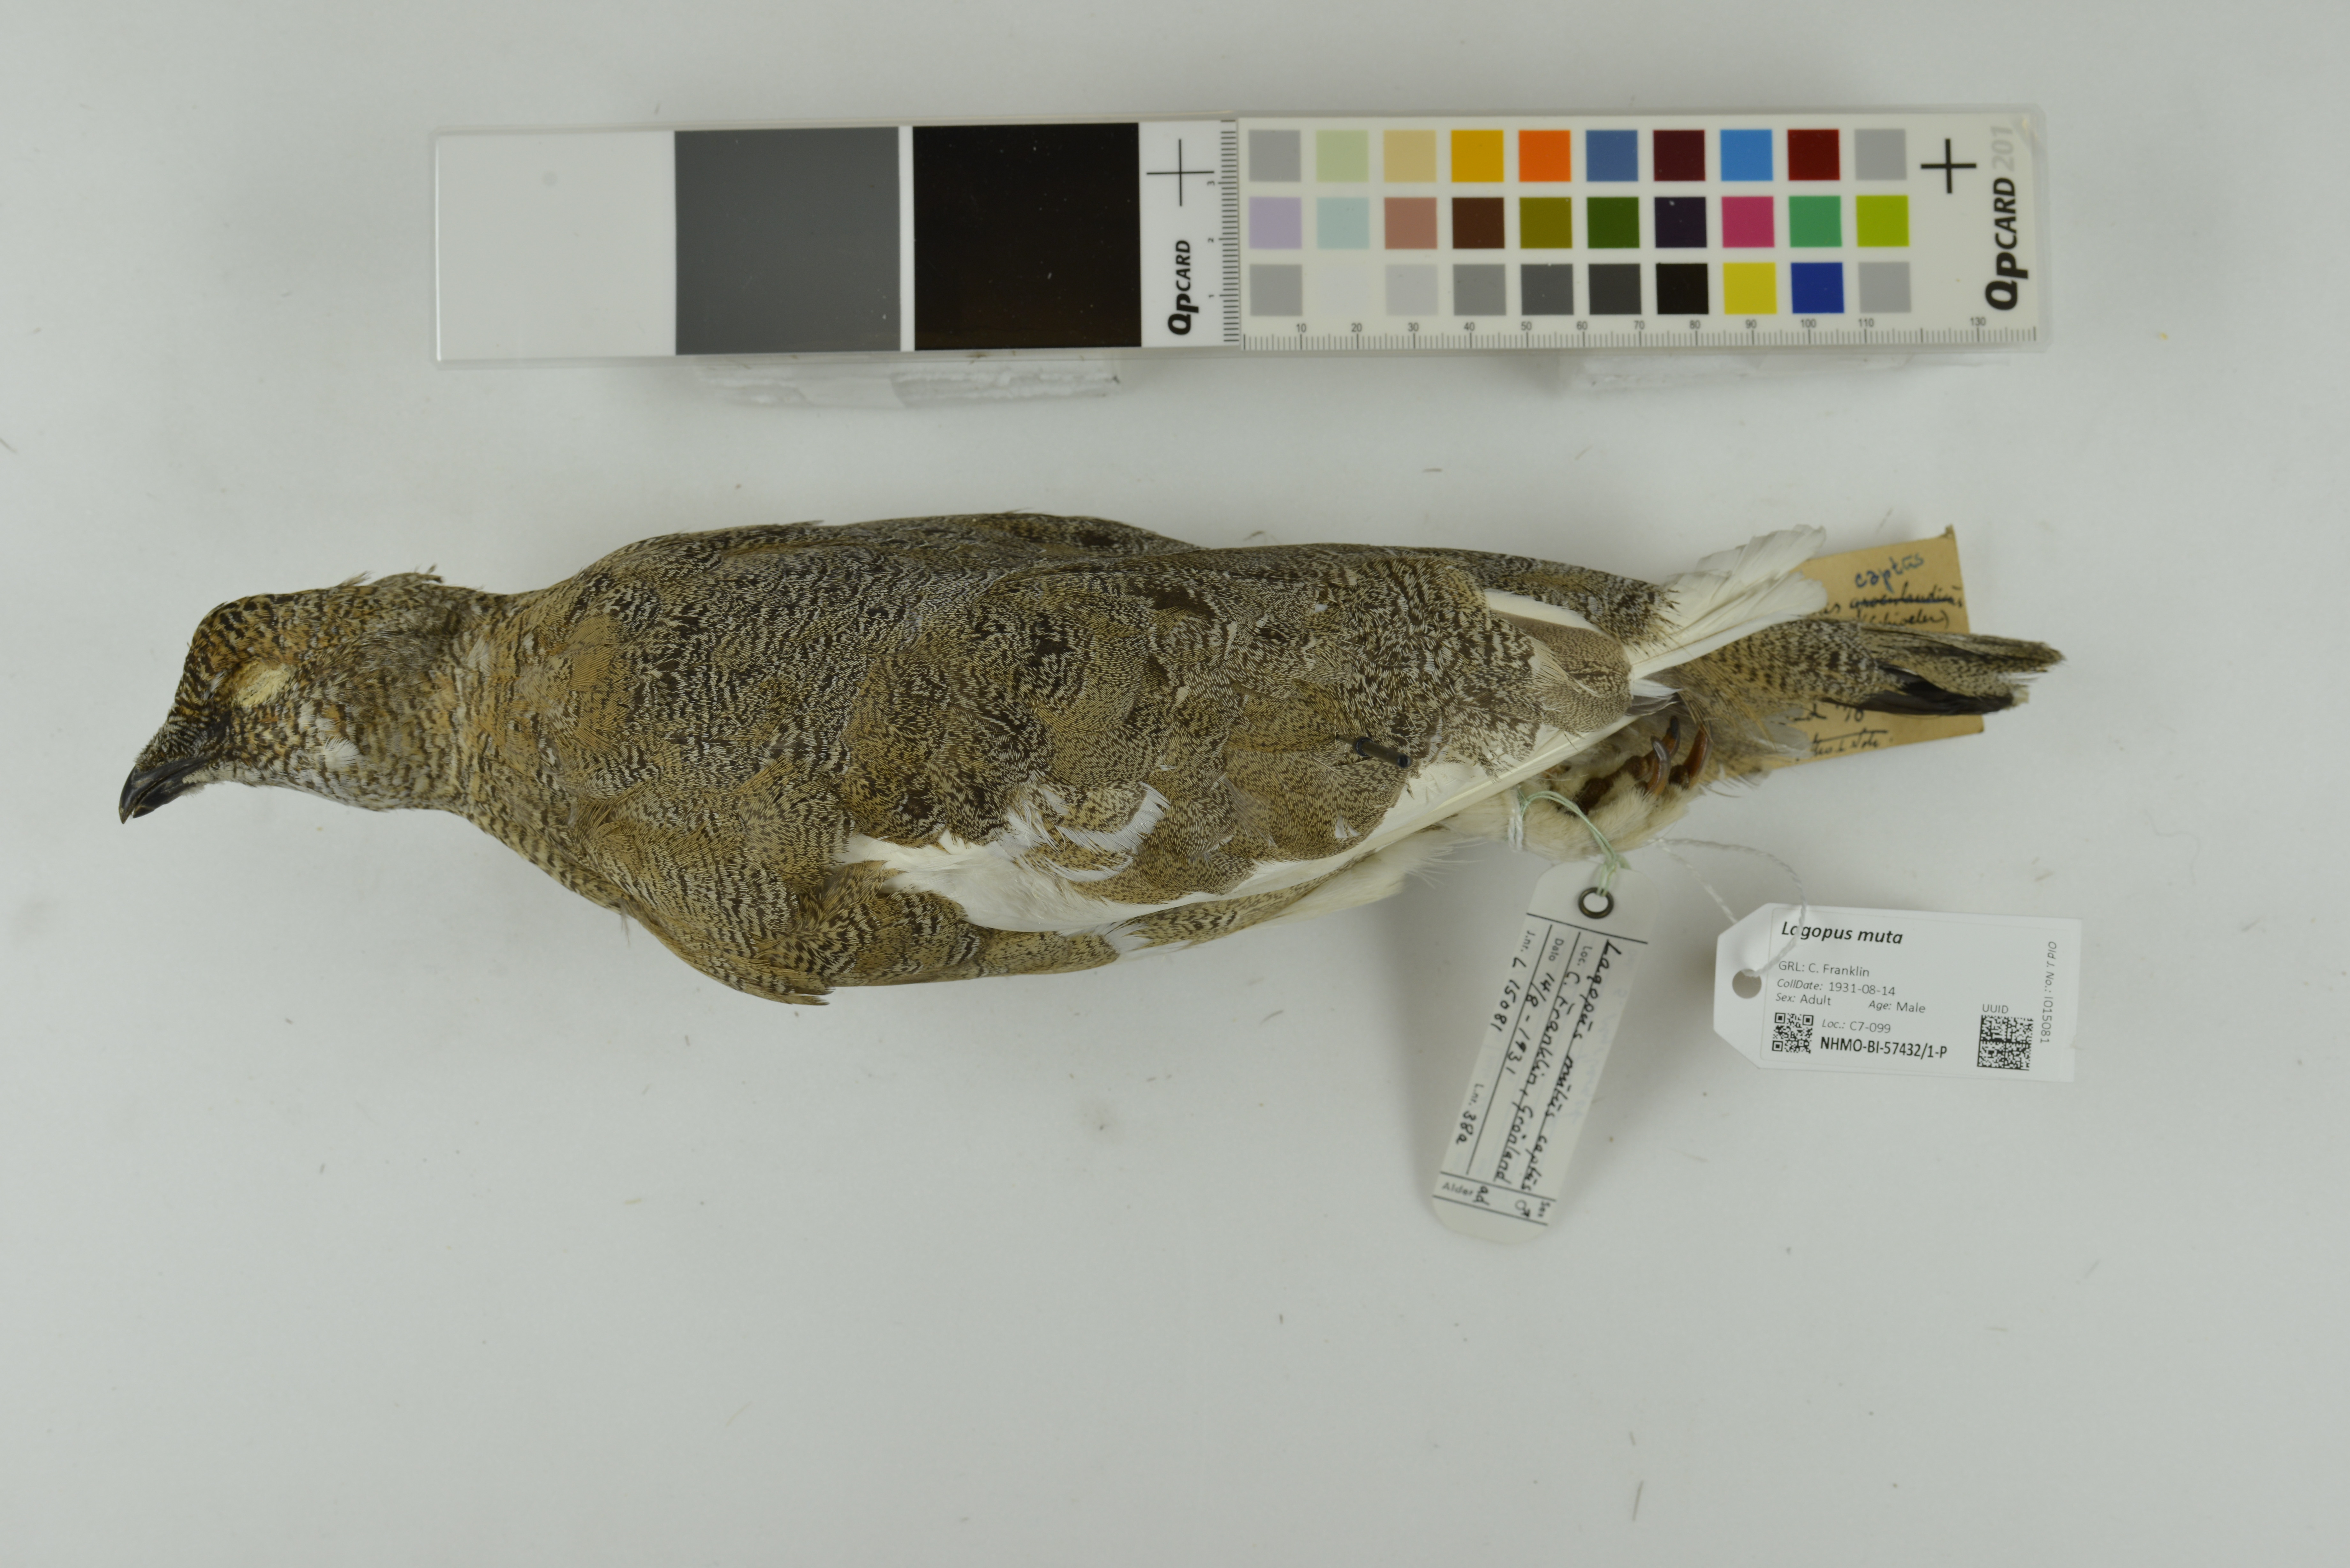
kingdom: Animalia
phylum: Chordata
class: Aves
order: Galliformes
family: Phasianidae
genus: Lagopus
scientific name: Lagopus muta
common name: Rock ptarmigan
